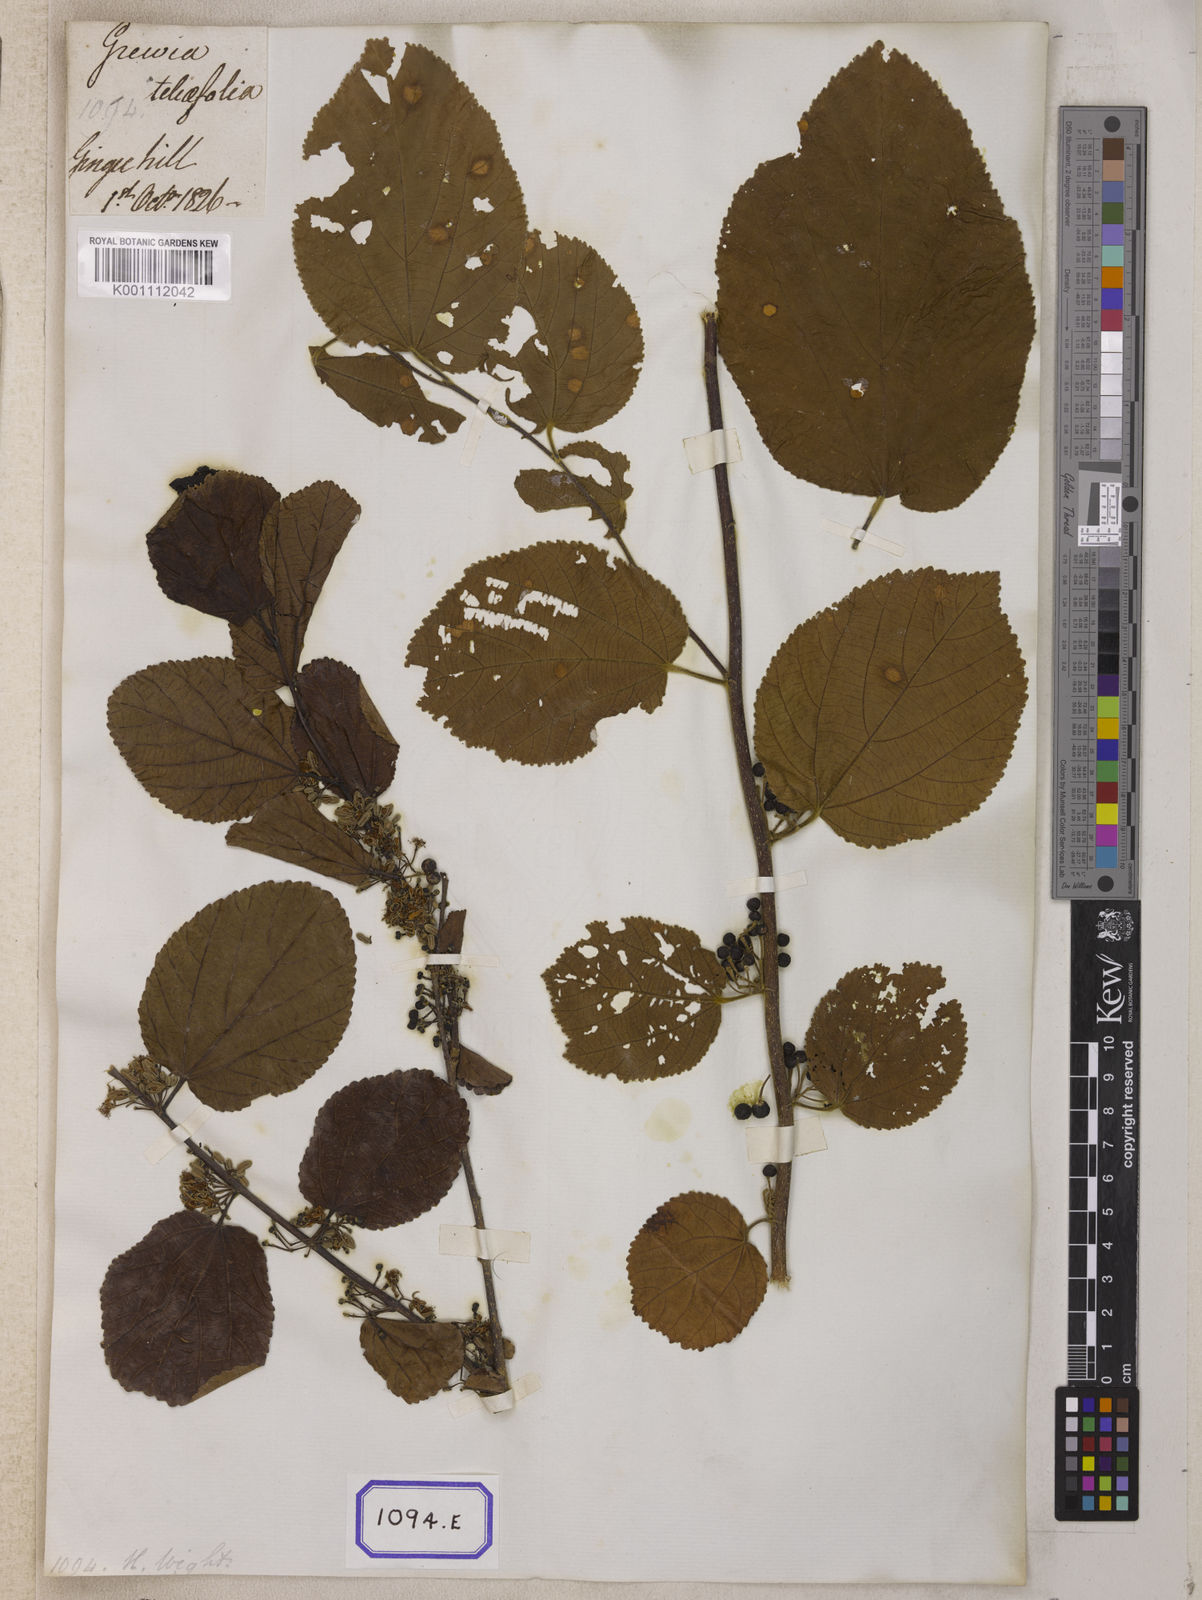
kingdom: Plantae
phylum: Tracheophyta
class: Magnoliopsida
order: Malvales
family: Malvaceae
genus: Grewia
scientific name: Grewia tiliifolia
